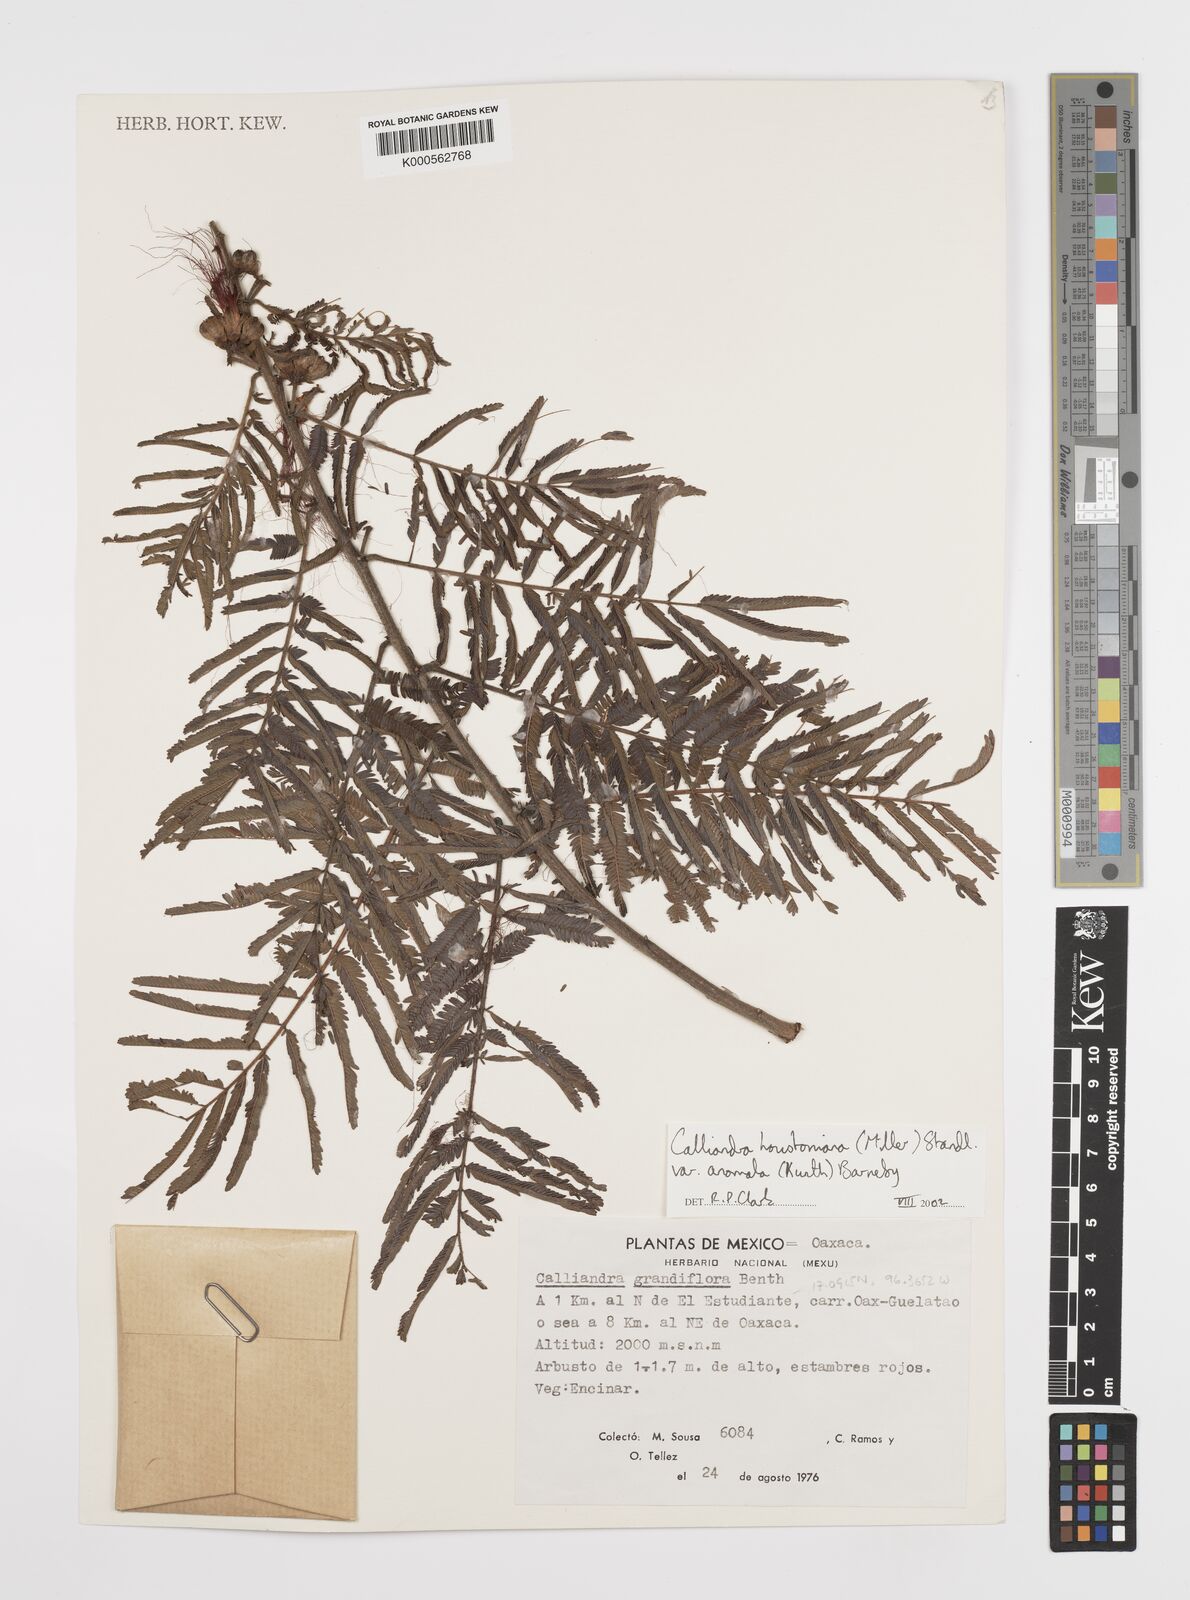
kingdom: Plantae
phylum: Tracheophyta
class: Magnoliopsida
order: Fabales
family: Fabaceae
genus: Calliandra
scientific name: Calliandra houstoniana
